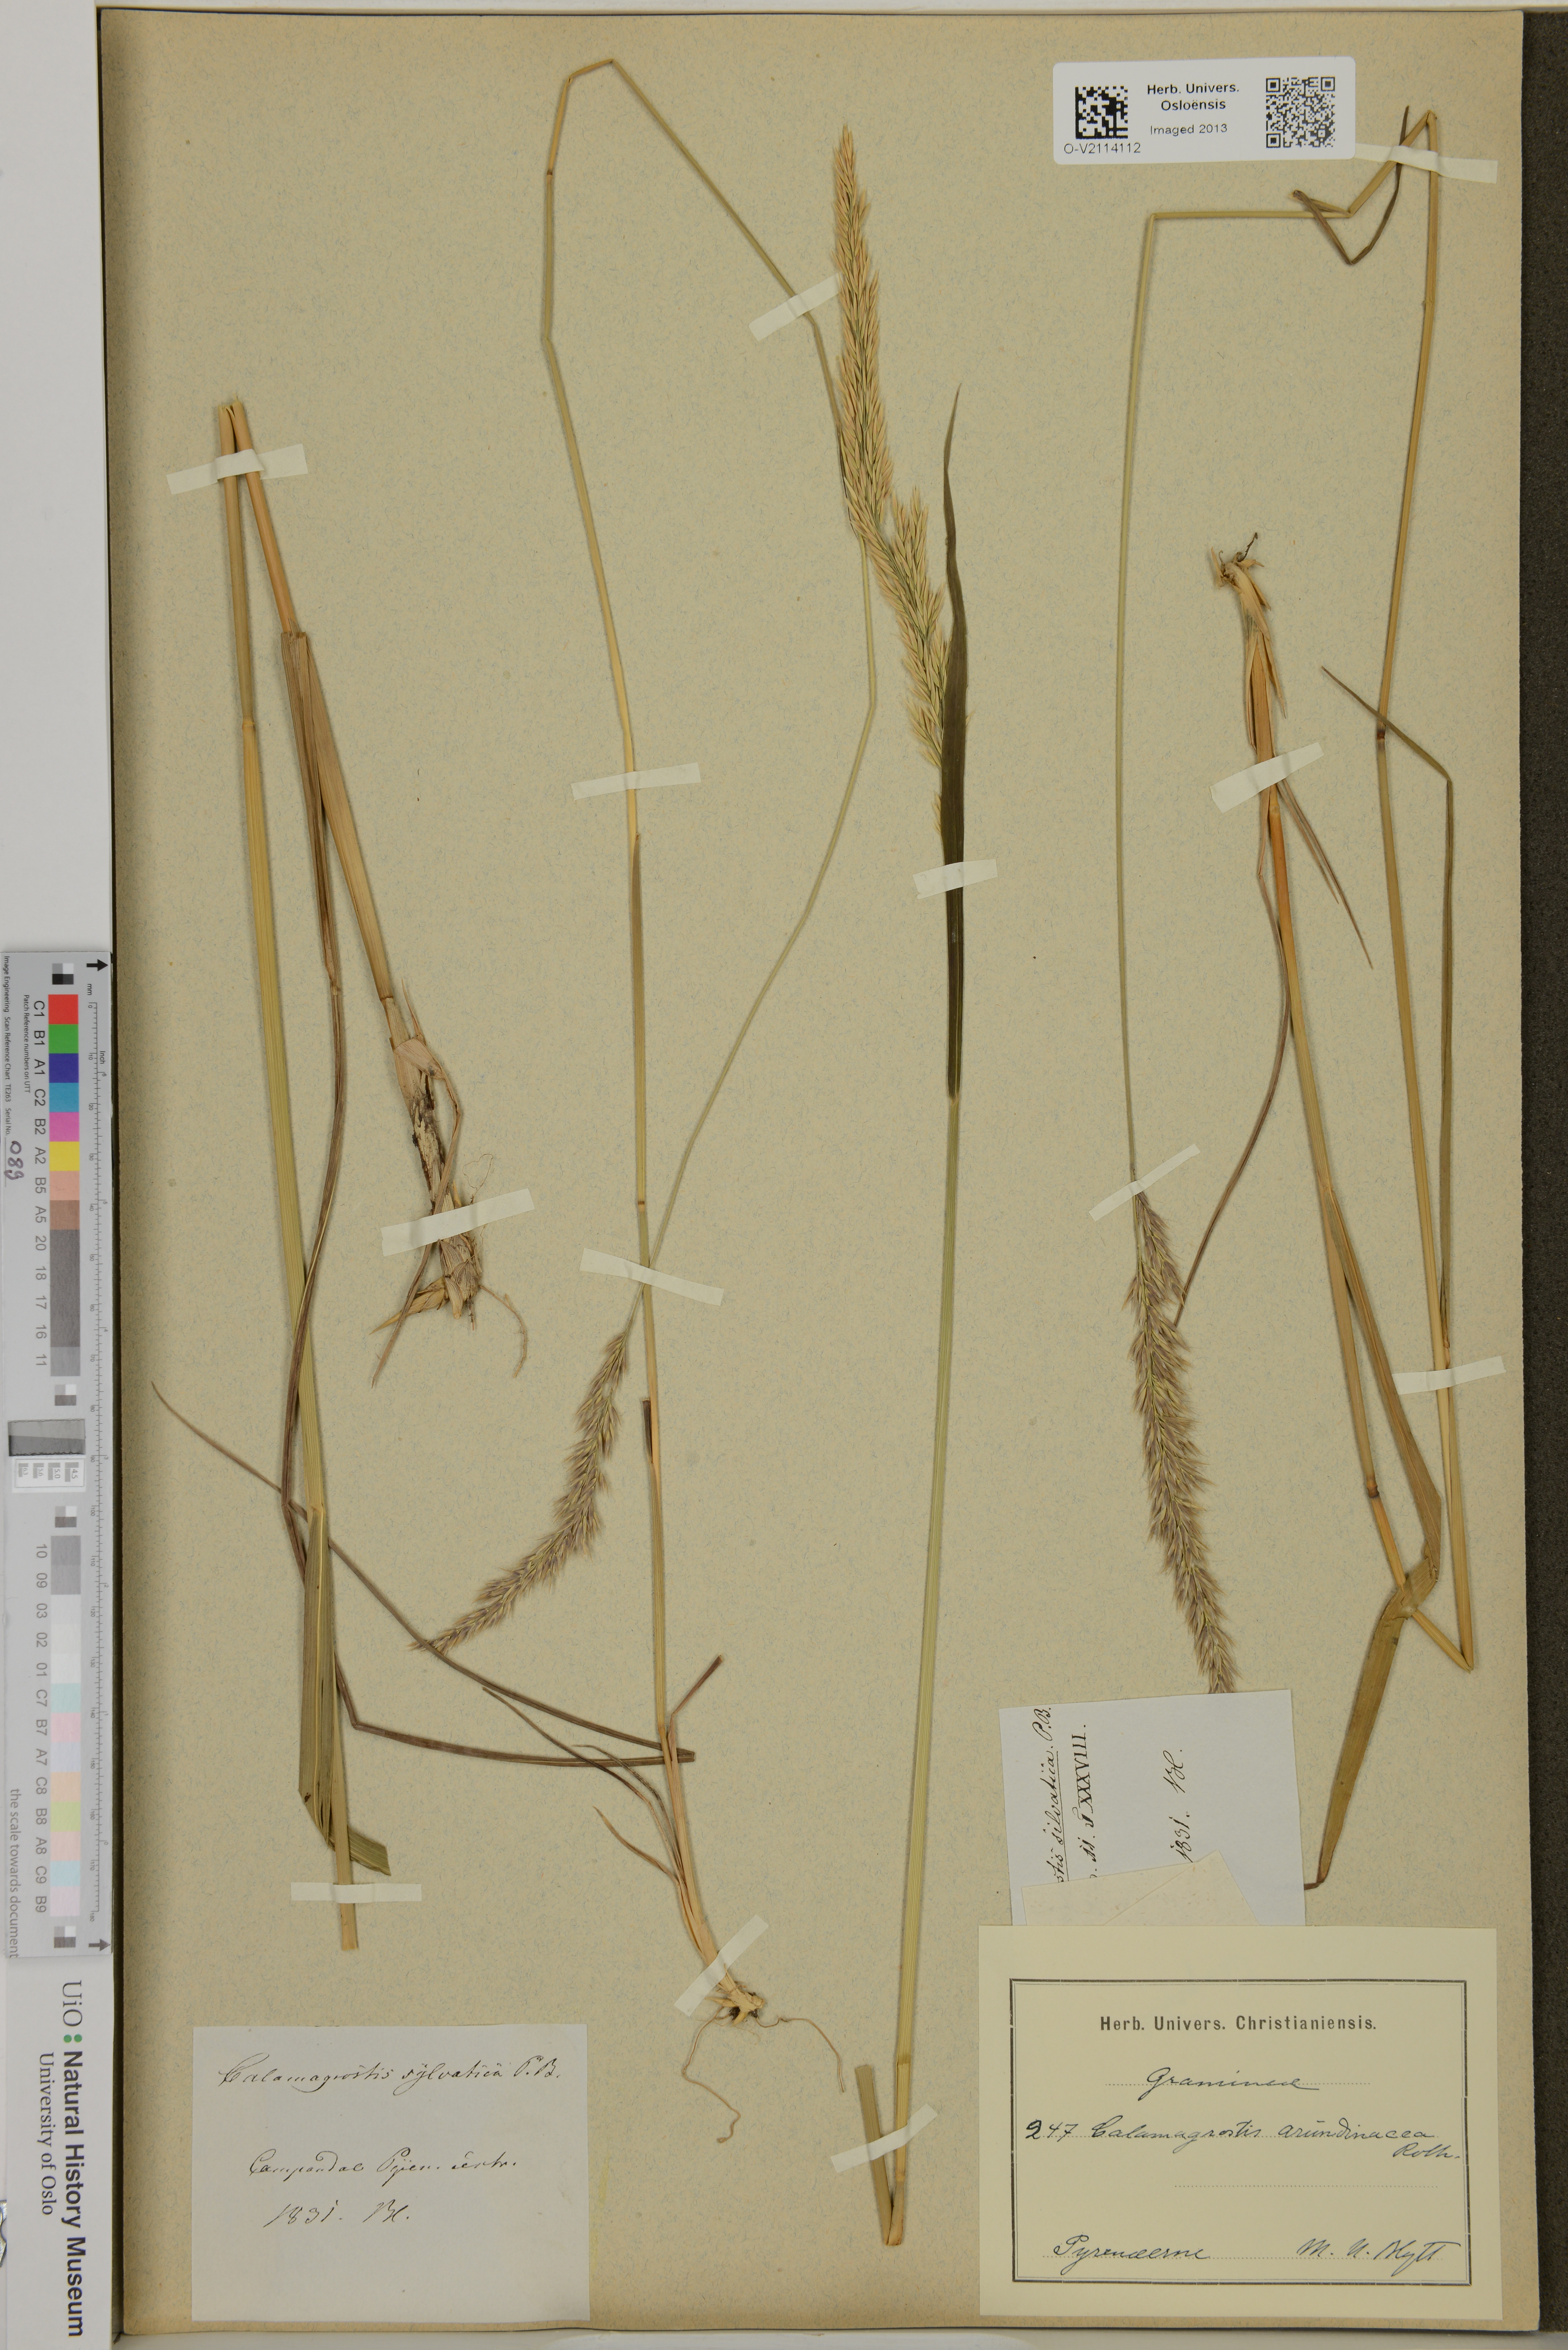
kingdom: Plantae
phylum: Tracheophyta
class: Liliopsida
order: Poales
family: Poaceae
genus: Calamagrostis
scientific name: Calamagrostis arundinacea
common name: Metskastik
